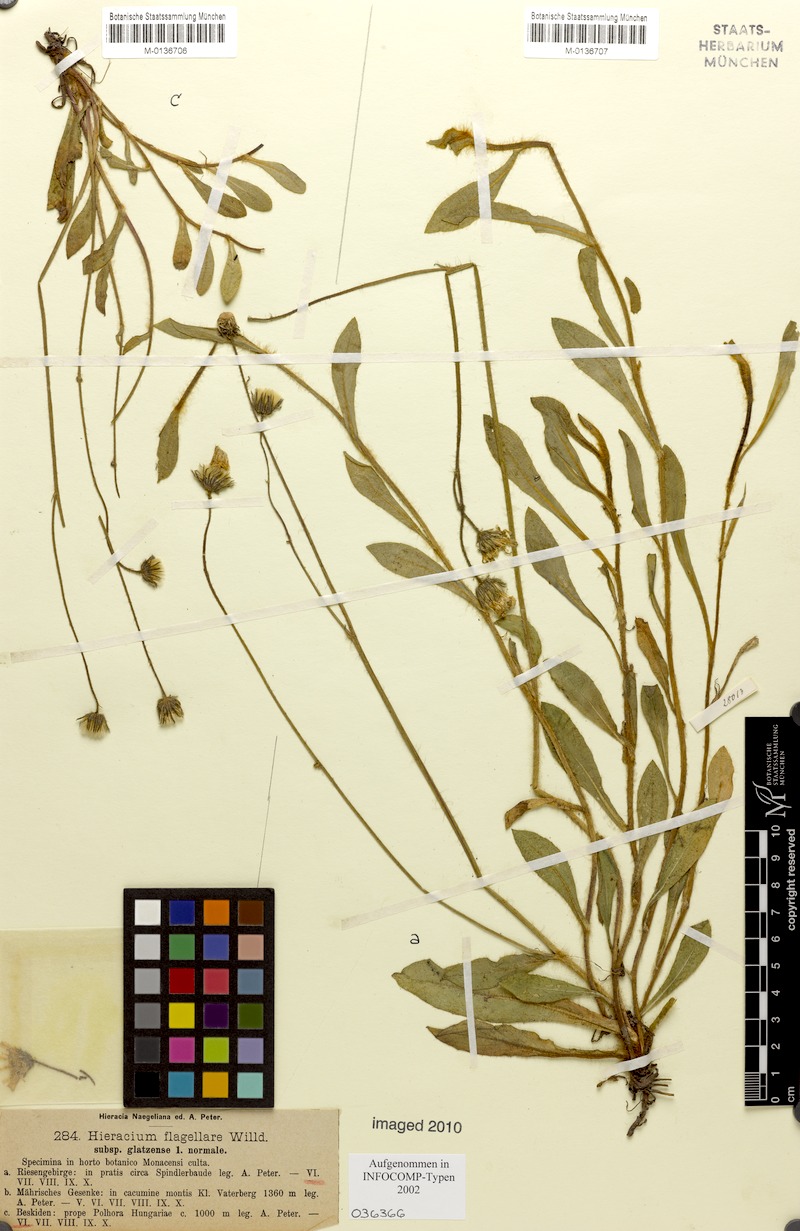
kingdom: Plantae
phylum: Tracheophyta
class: Magnoliopsida
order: Asterales
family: Asteraceae
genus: Pilosella
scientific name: Pilosella
